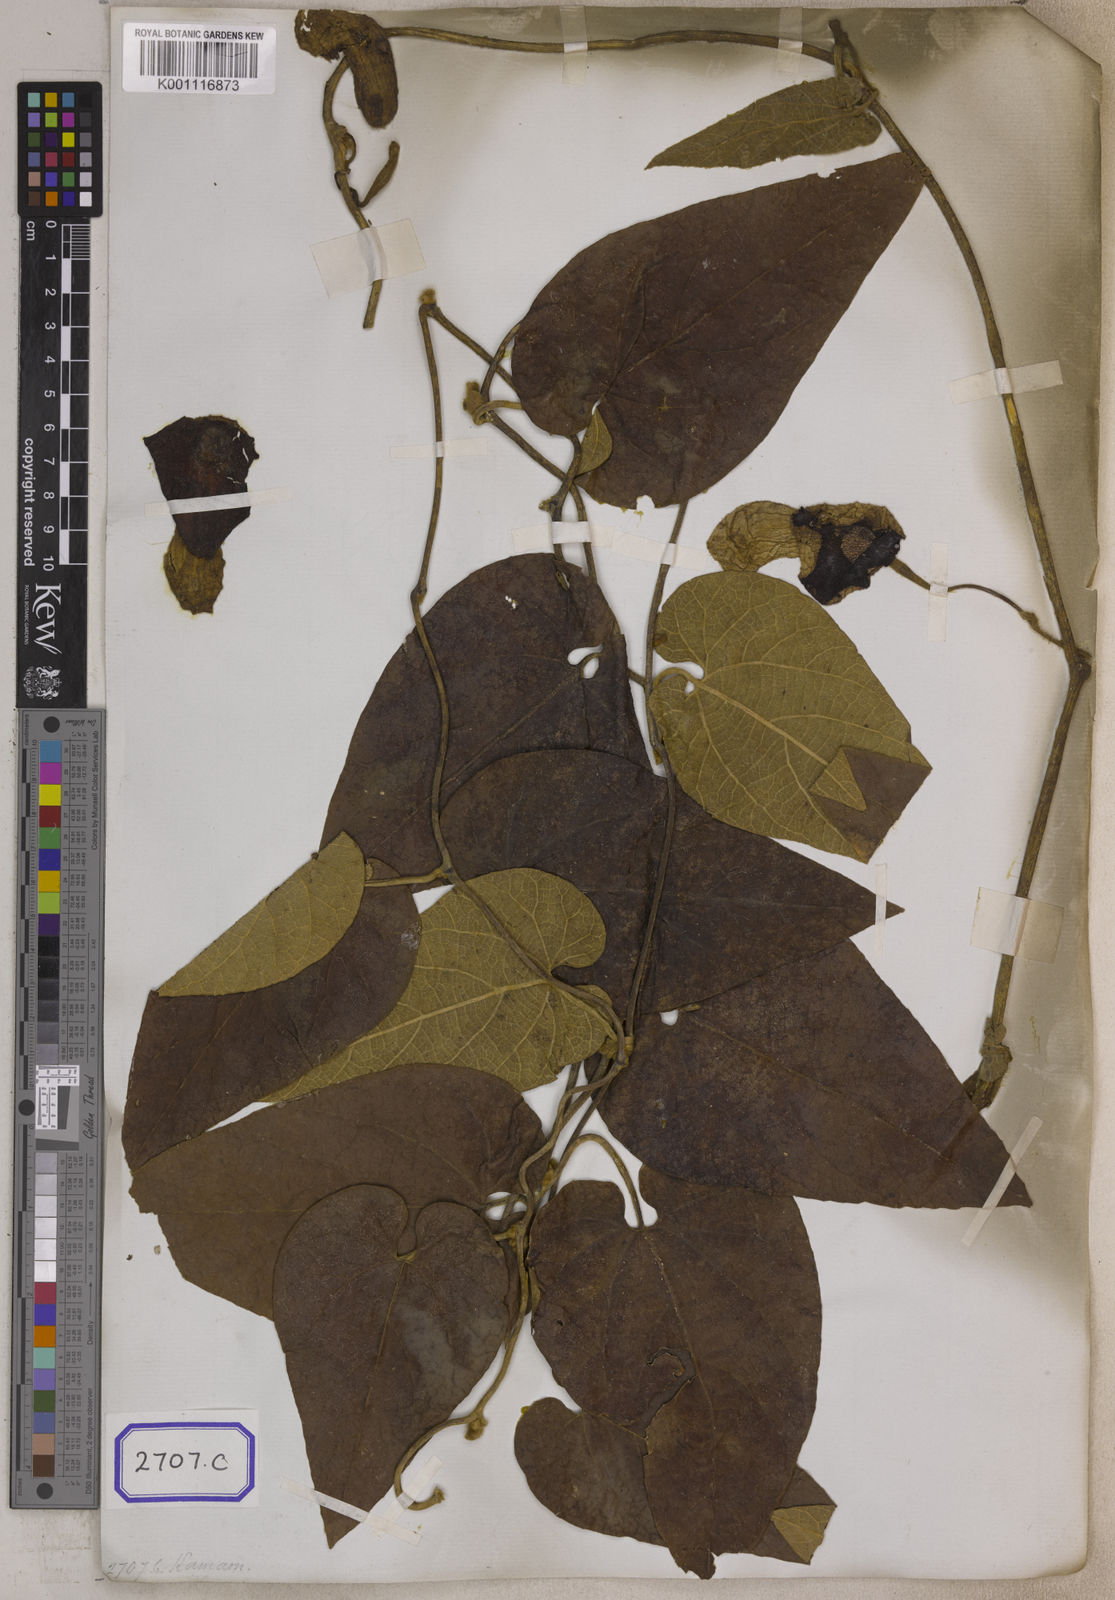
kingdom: Plantae
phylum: Tracheophyta
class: Magnoliopsida
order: Piperales
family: Aristolochiaceae
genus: Isotrema
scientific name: Isotrema saccatum
